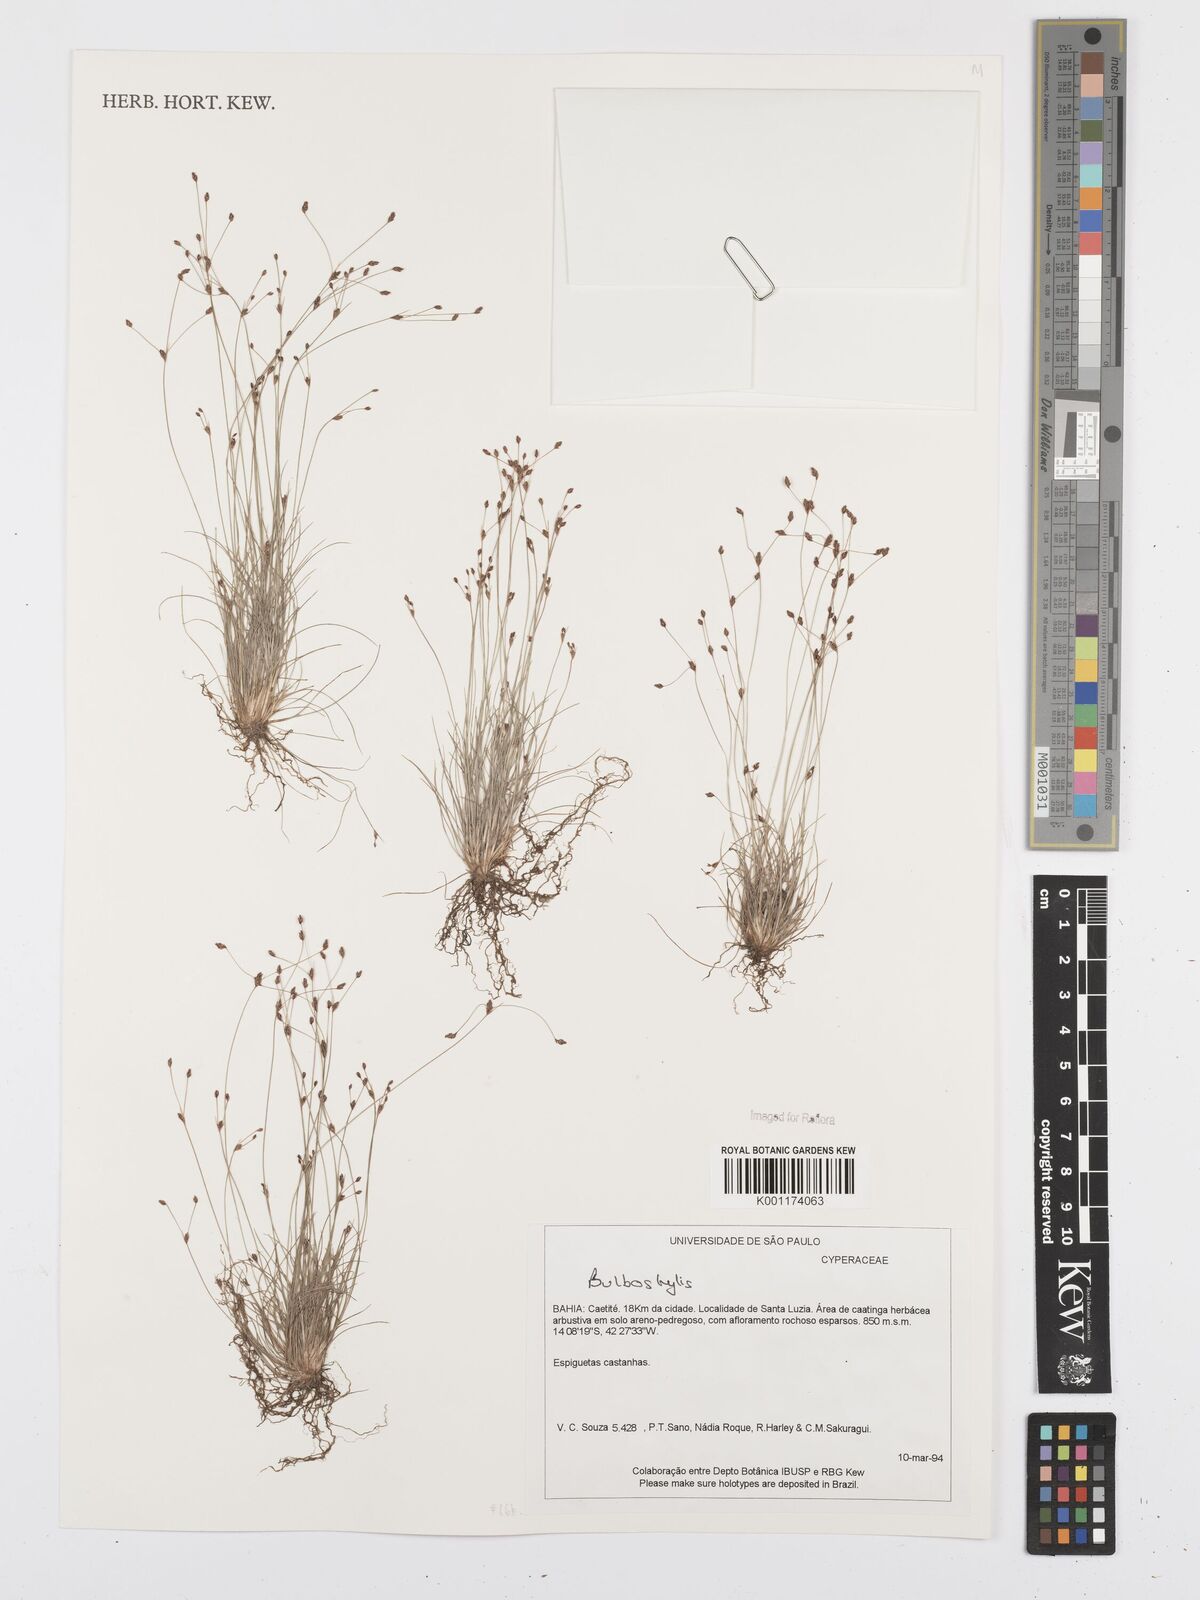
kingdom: Plantae
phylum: Tracheophyta
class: Liliopsida
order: Poales
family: Cyperaceae
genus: Bulbostylis
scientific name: Bulbostylis
